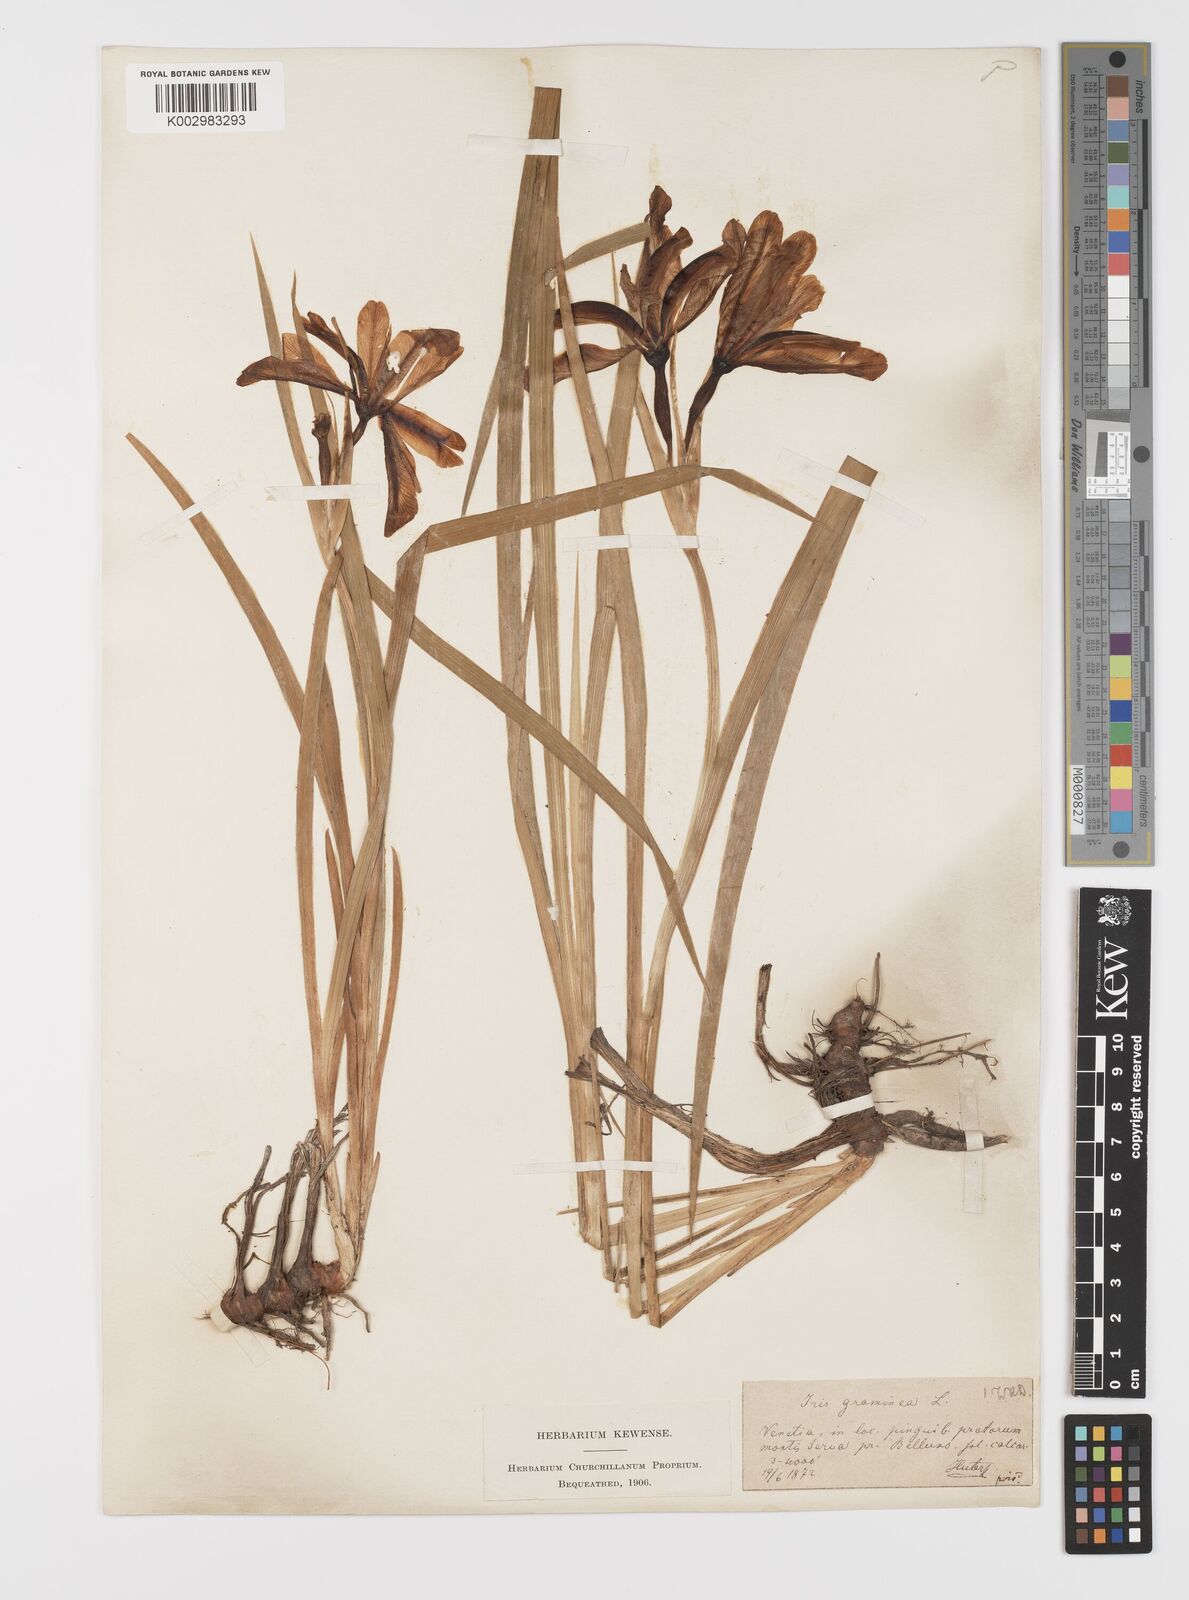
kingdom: Plantae
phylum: Tracheophyta
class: Liliopsida
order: Asparagales
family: Iridaceae
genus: Iris
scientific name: Iris graminea
